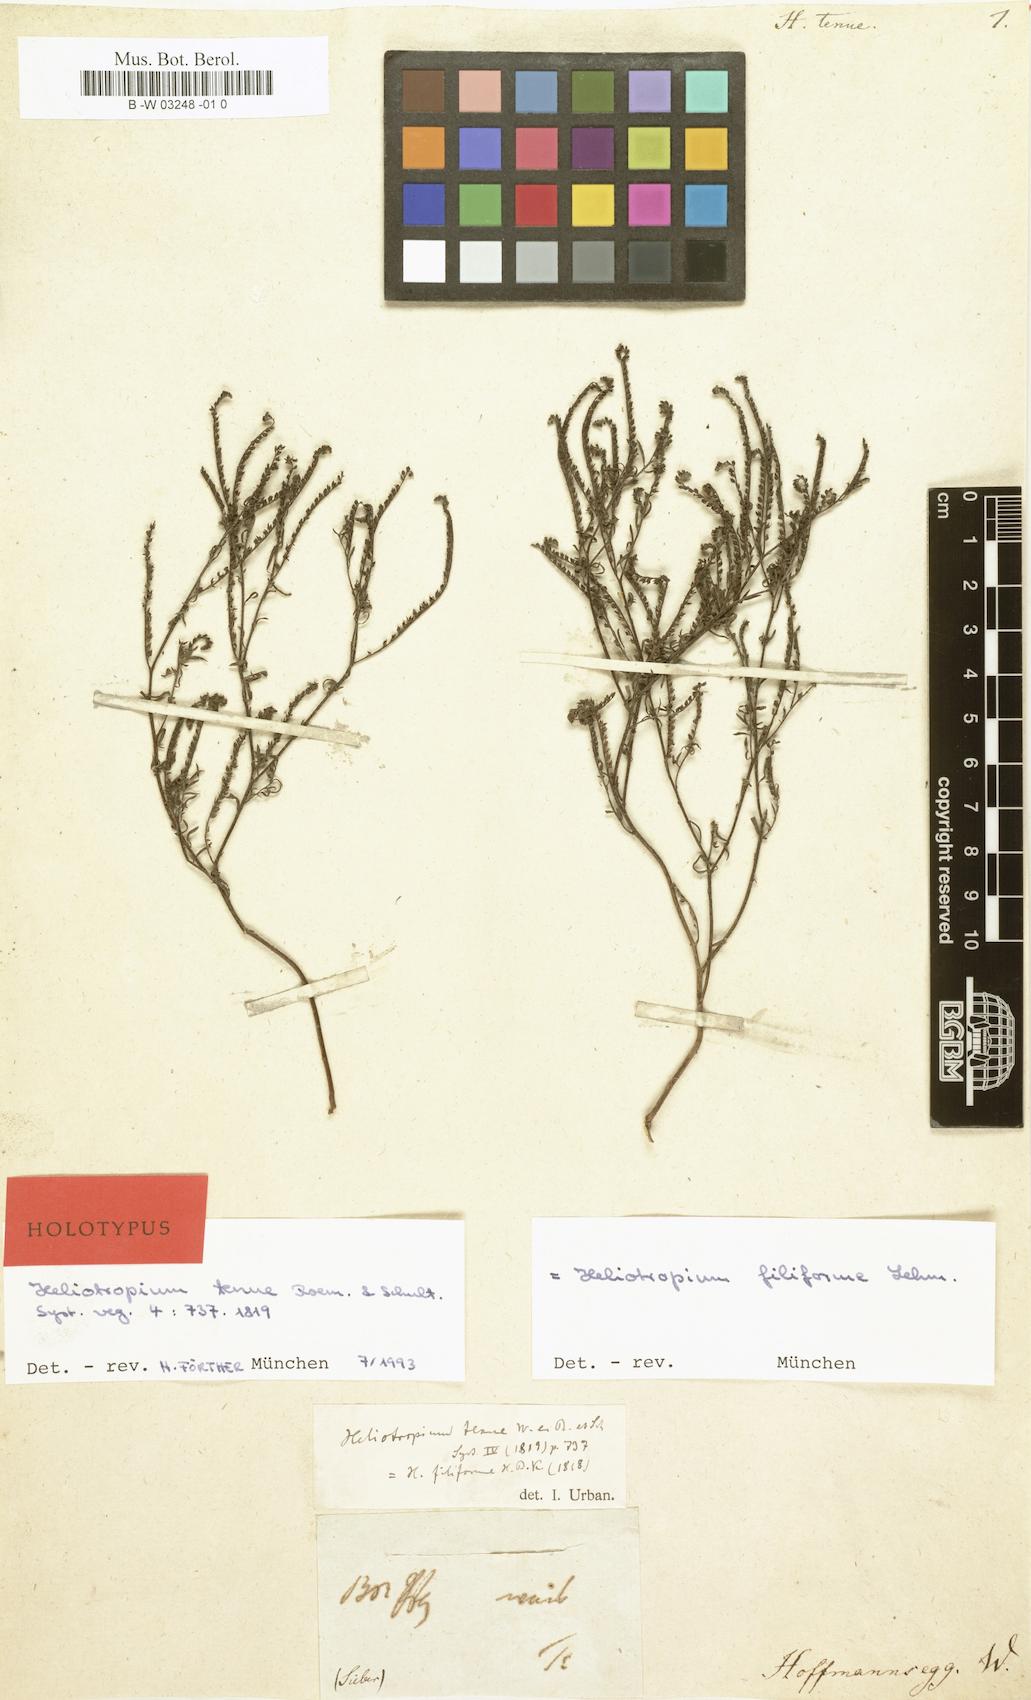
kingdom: Plantae
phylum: Tracheophyta
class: Magnoliopsida
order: Boraginales
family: Heliotropiaceae
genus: Euploca
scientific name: Euploca
